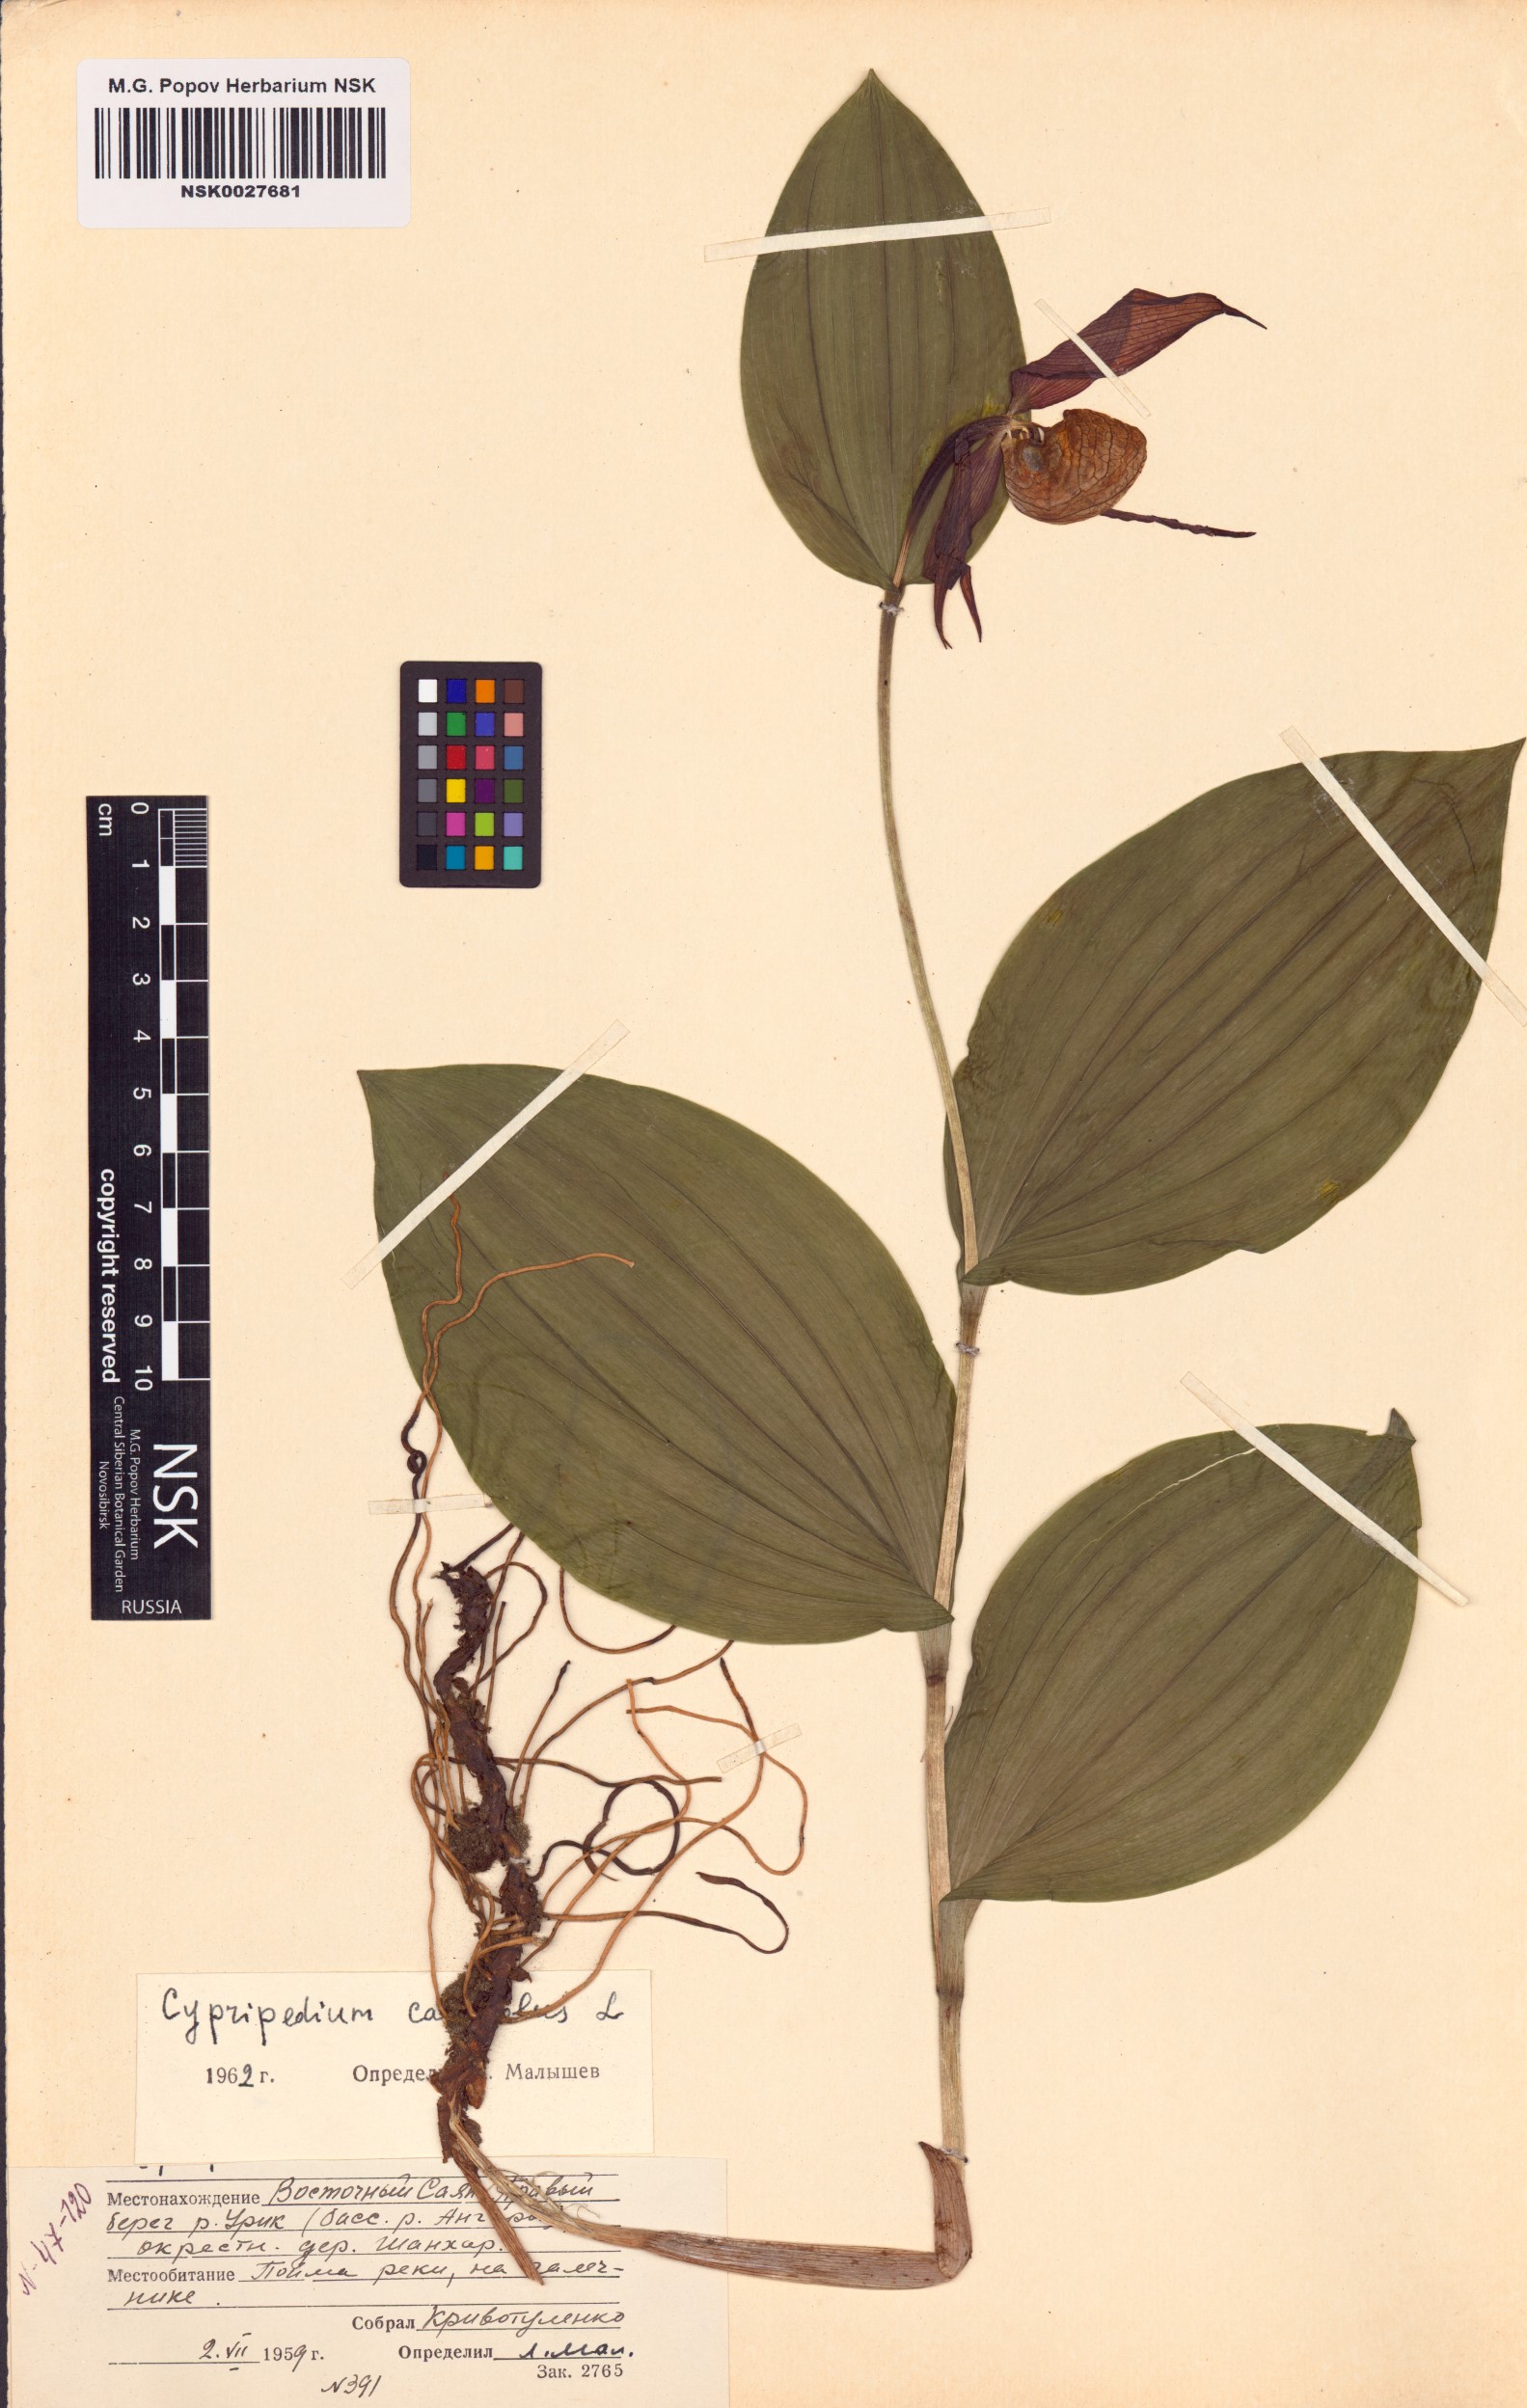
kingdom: Plantae
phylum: Tracheophyta
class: Liliopsida
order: Asparagales
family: Orchidaceae
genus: Cypripedium
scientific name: Cypripedium calceolus
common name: Lady's-slipper
